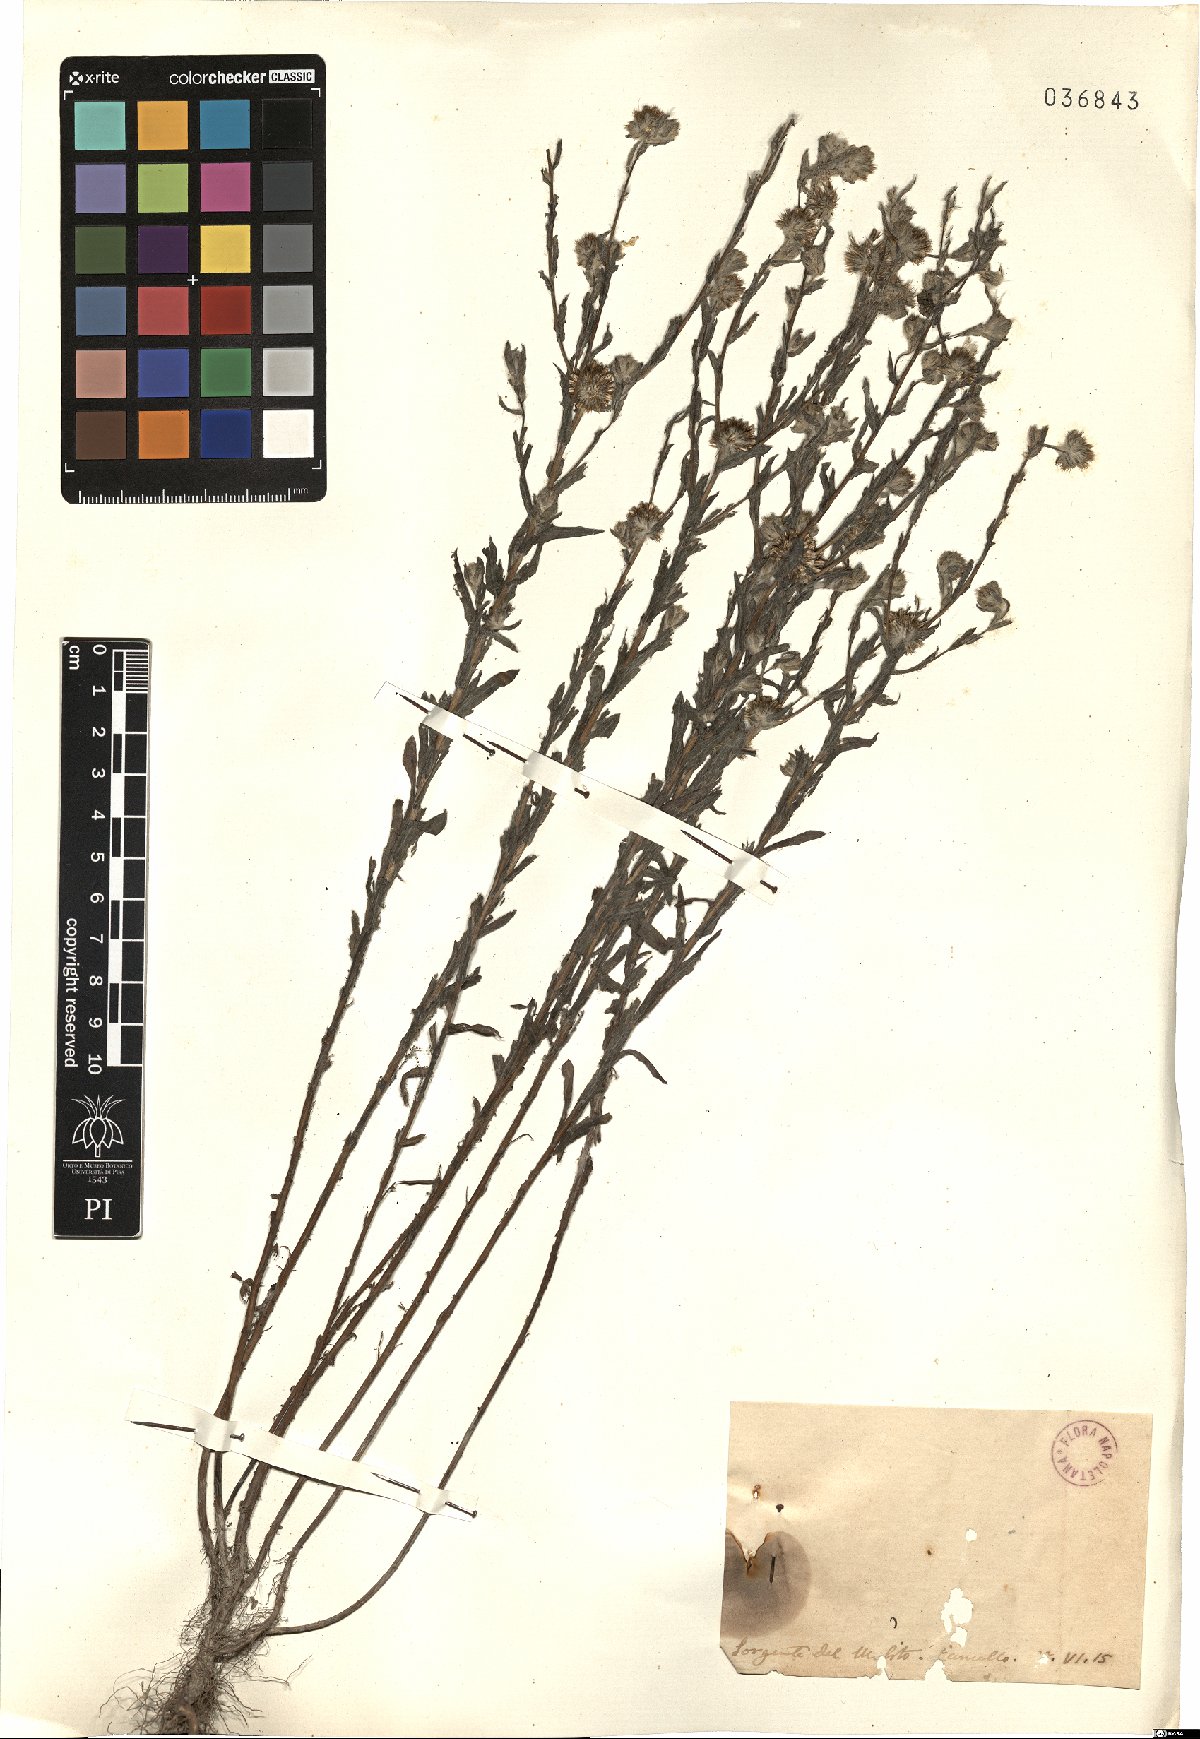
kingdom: Plantae
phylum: Tracheophyta
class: Magnoliopsida
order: Asterales
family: Asteraceae
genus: Filago
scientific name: Filago
